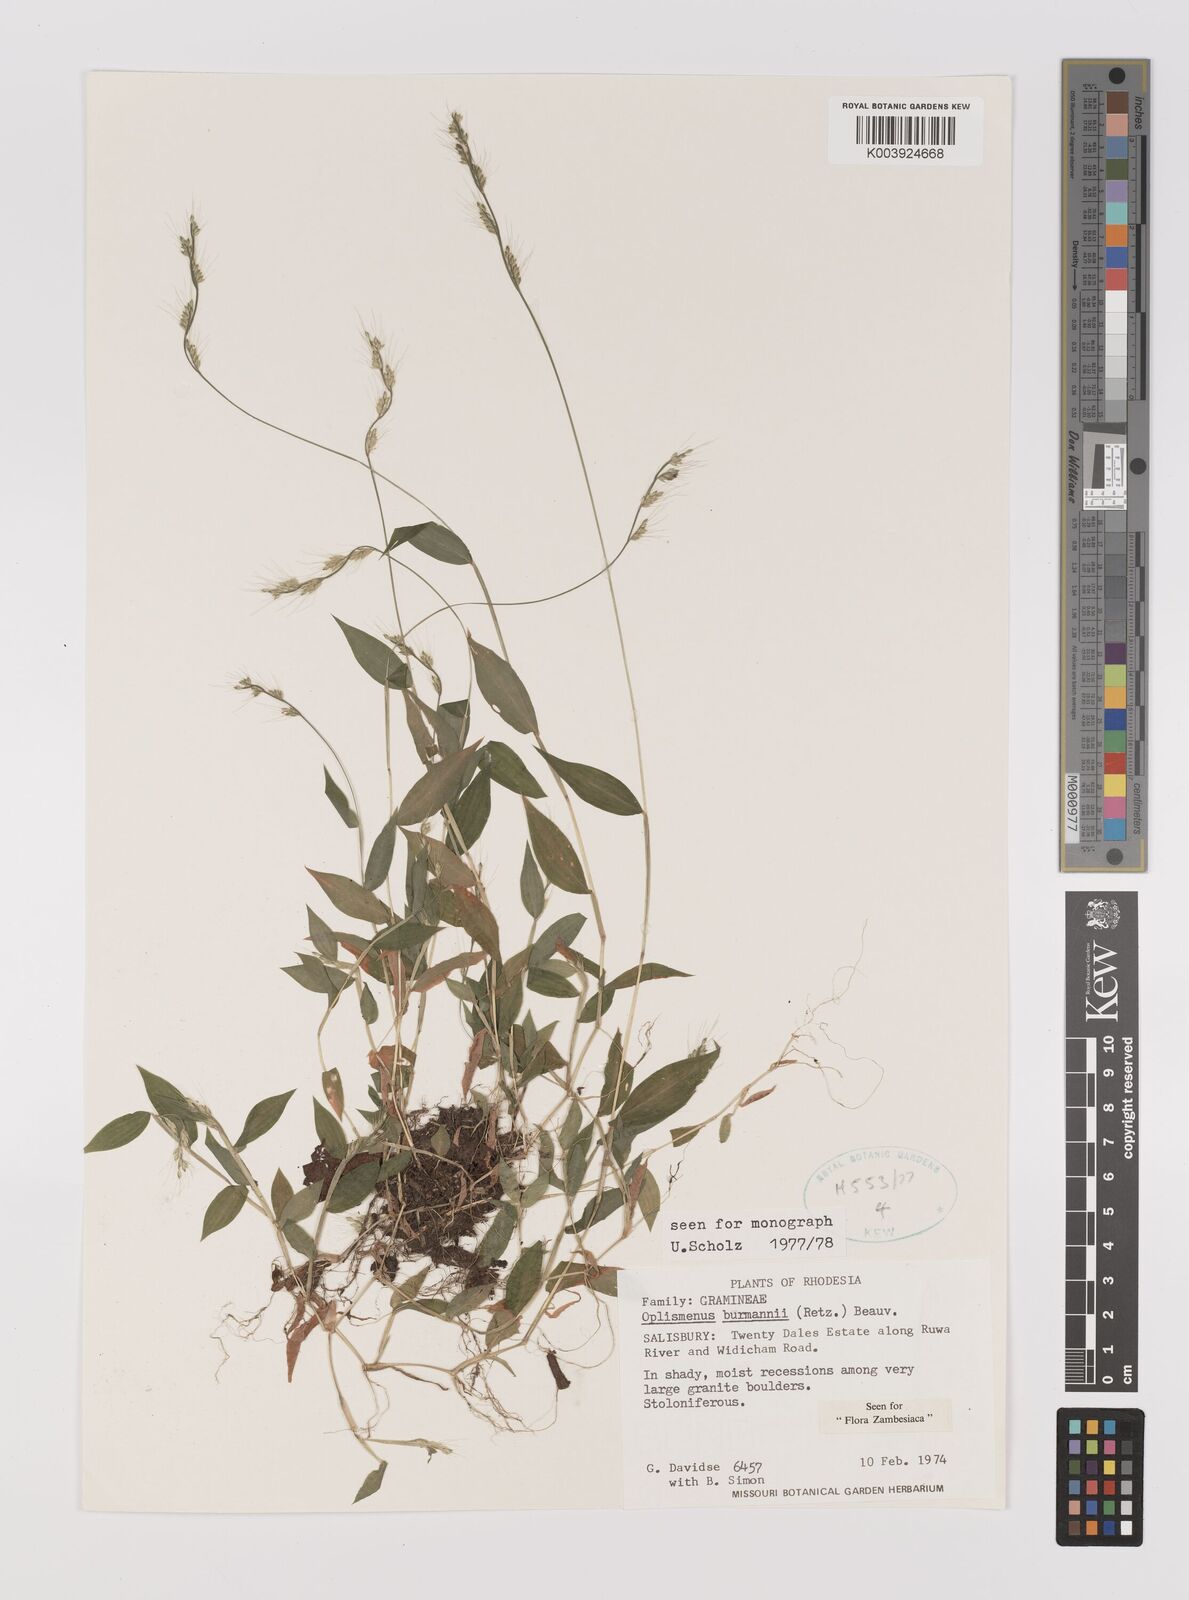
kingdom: Plantae
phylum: Tracheophyta
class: Liliopsida
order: Poales
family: Poaceae
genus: Oplismenus
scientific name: Oplismenus burmanni
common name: Burmann's basketgrass
